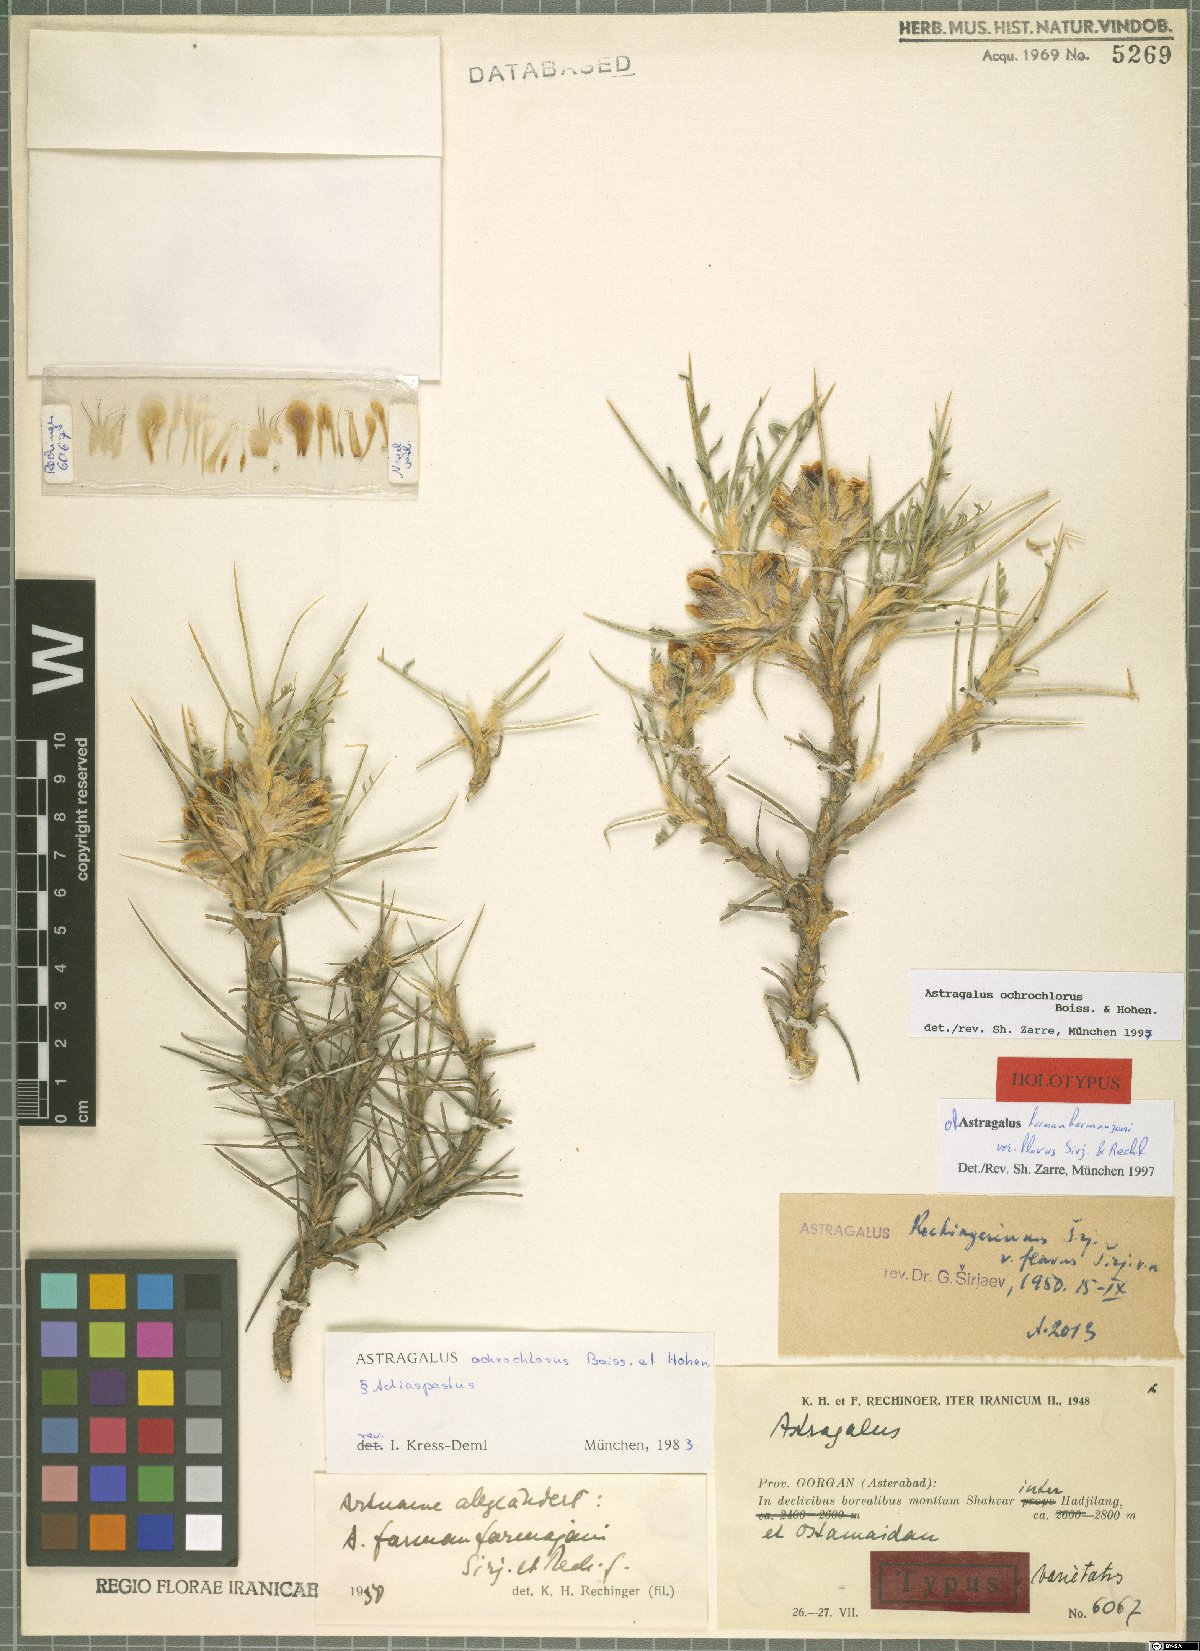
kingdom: Plantae
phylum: Tracheophyta
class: Magnoliopsida
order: Fabales
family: Fabaceae
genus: Astragalus
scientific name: Astragalus ochrochlorus
